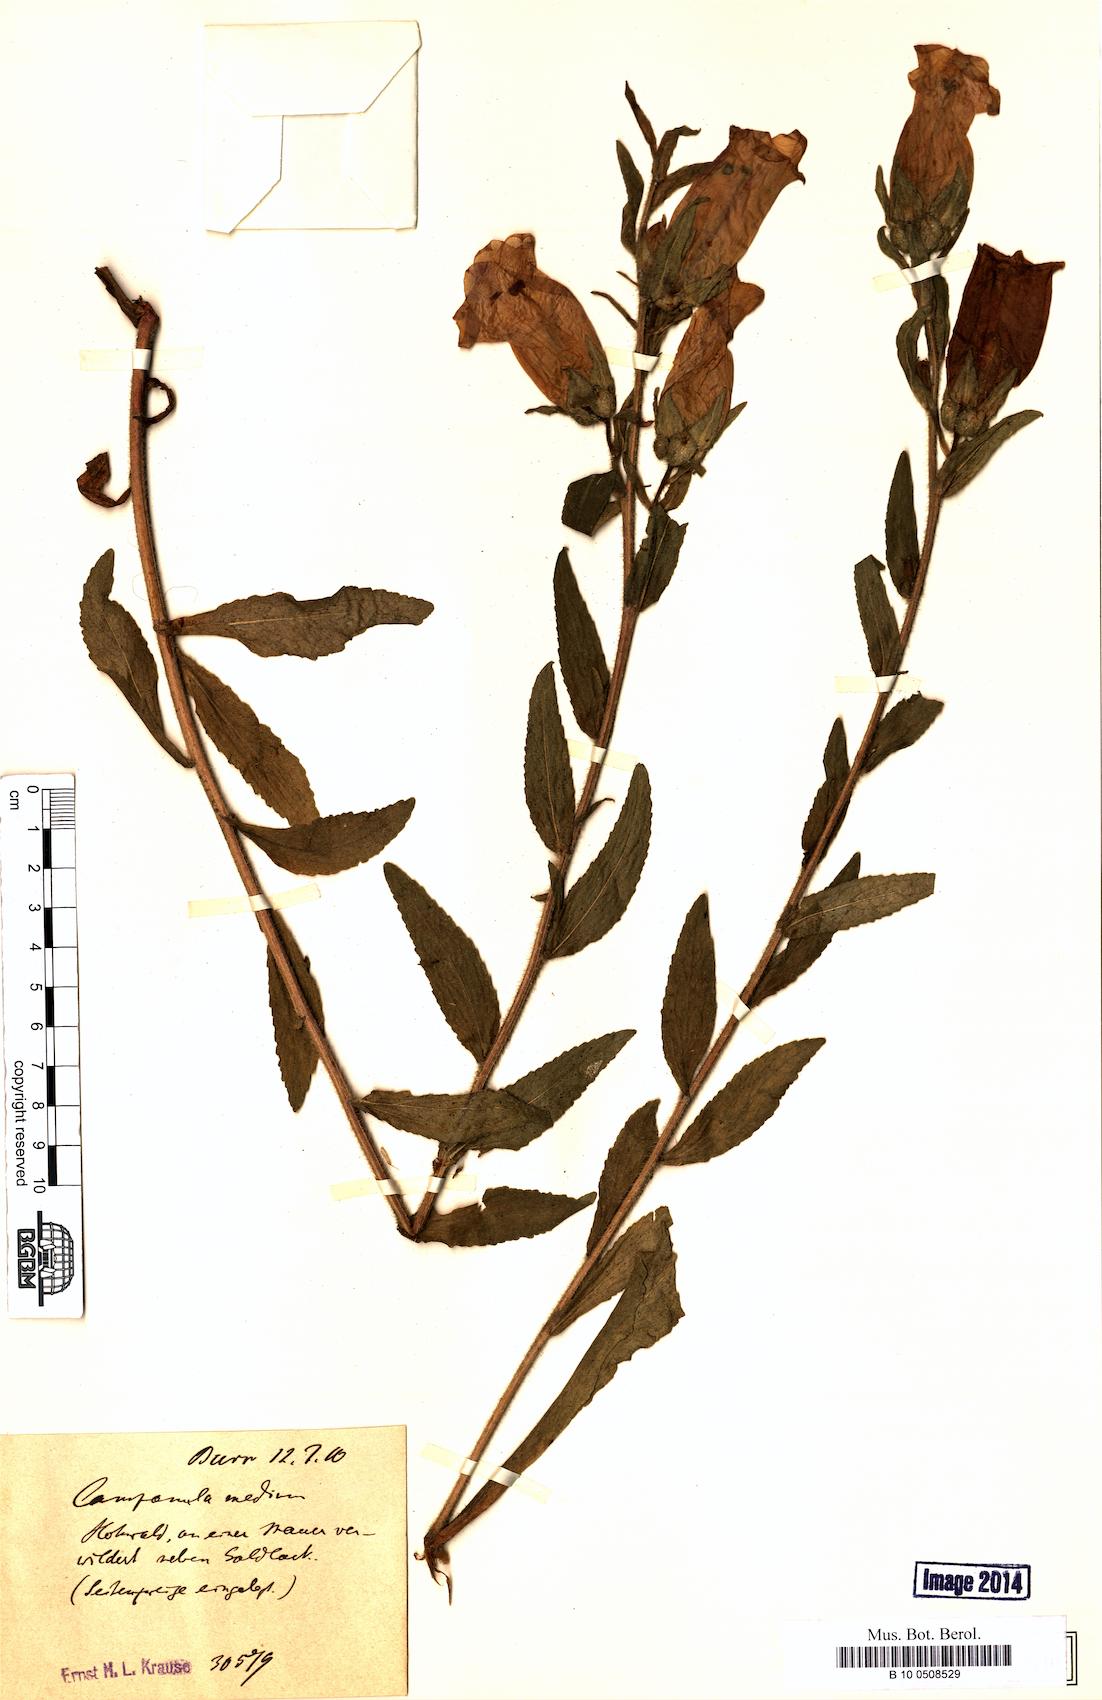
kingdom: Plantae
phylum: Tracheophyta
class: Magnoliopsida
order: Asterales
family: Campanulaceae
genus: Campanula
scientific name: Campanula medium
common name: Canterbury bells
